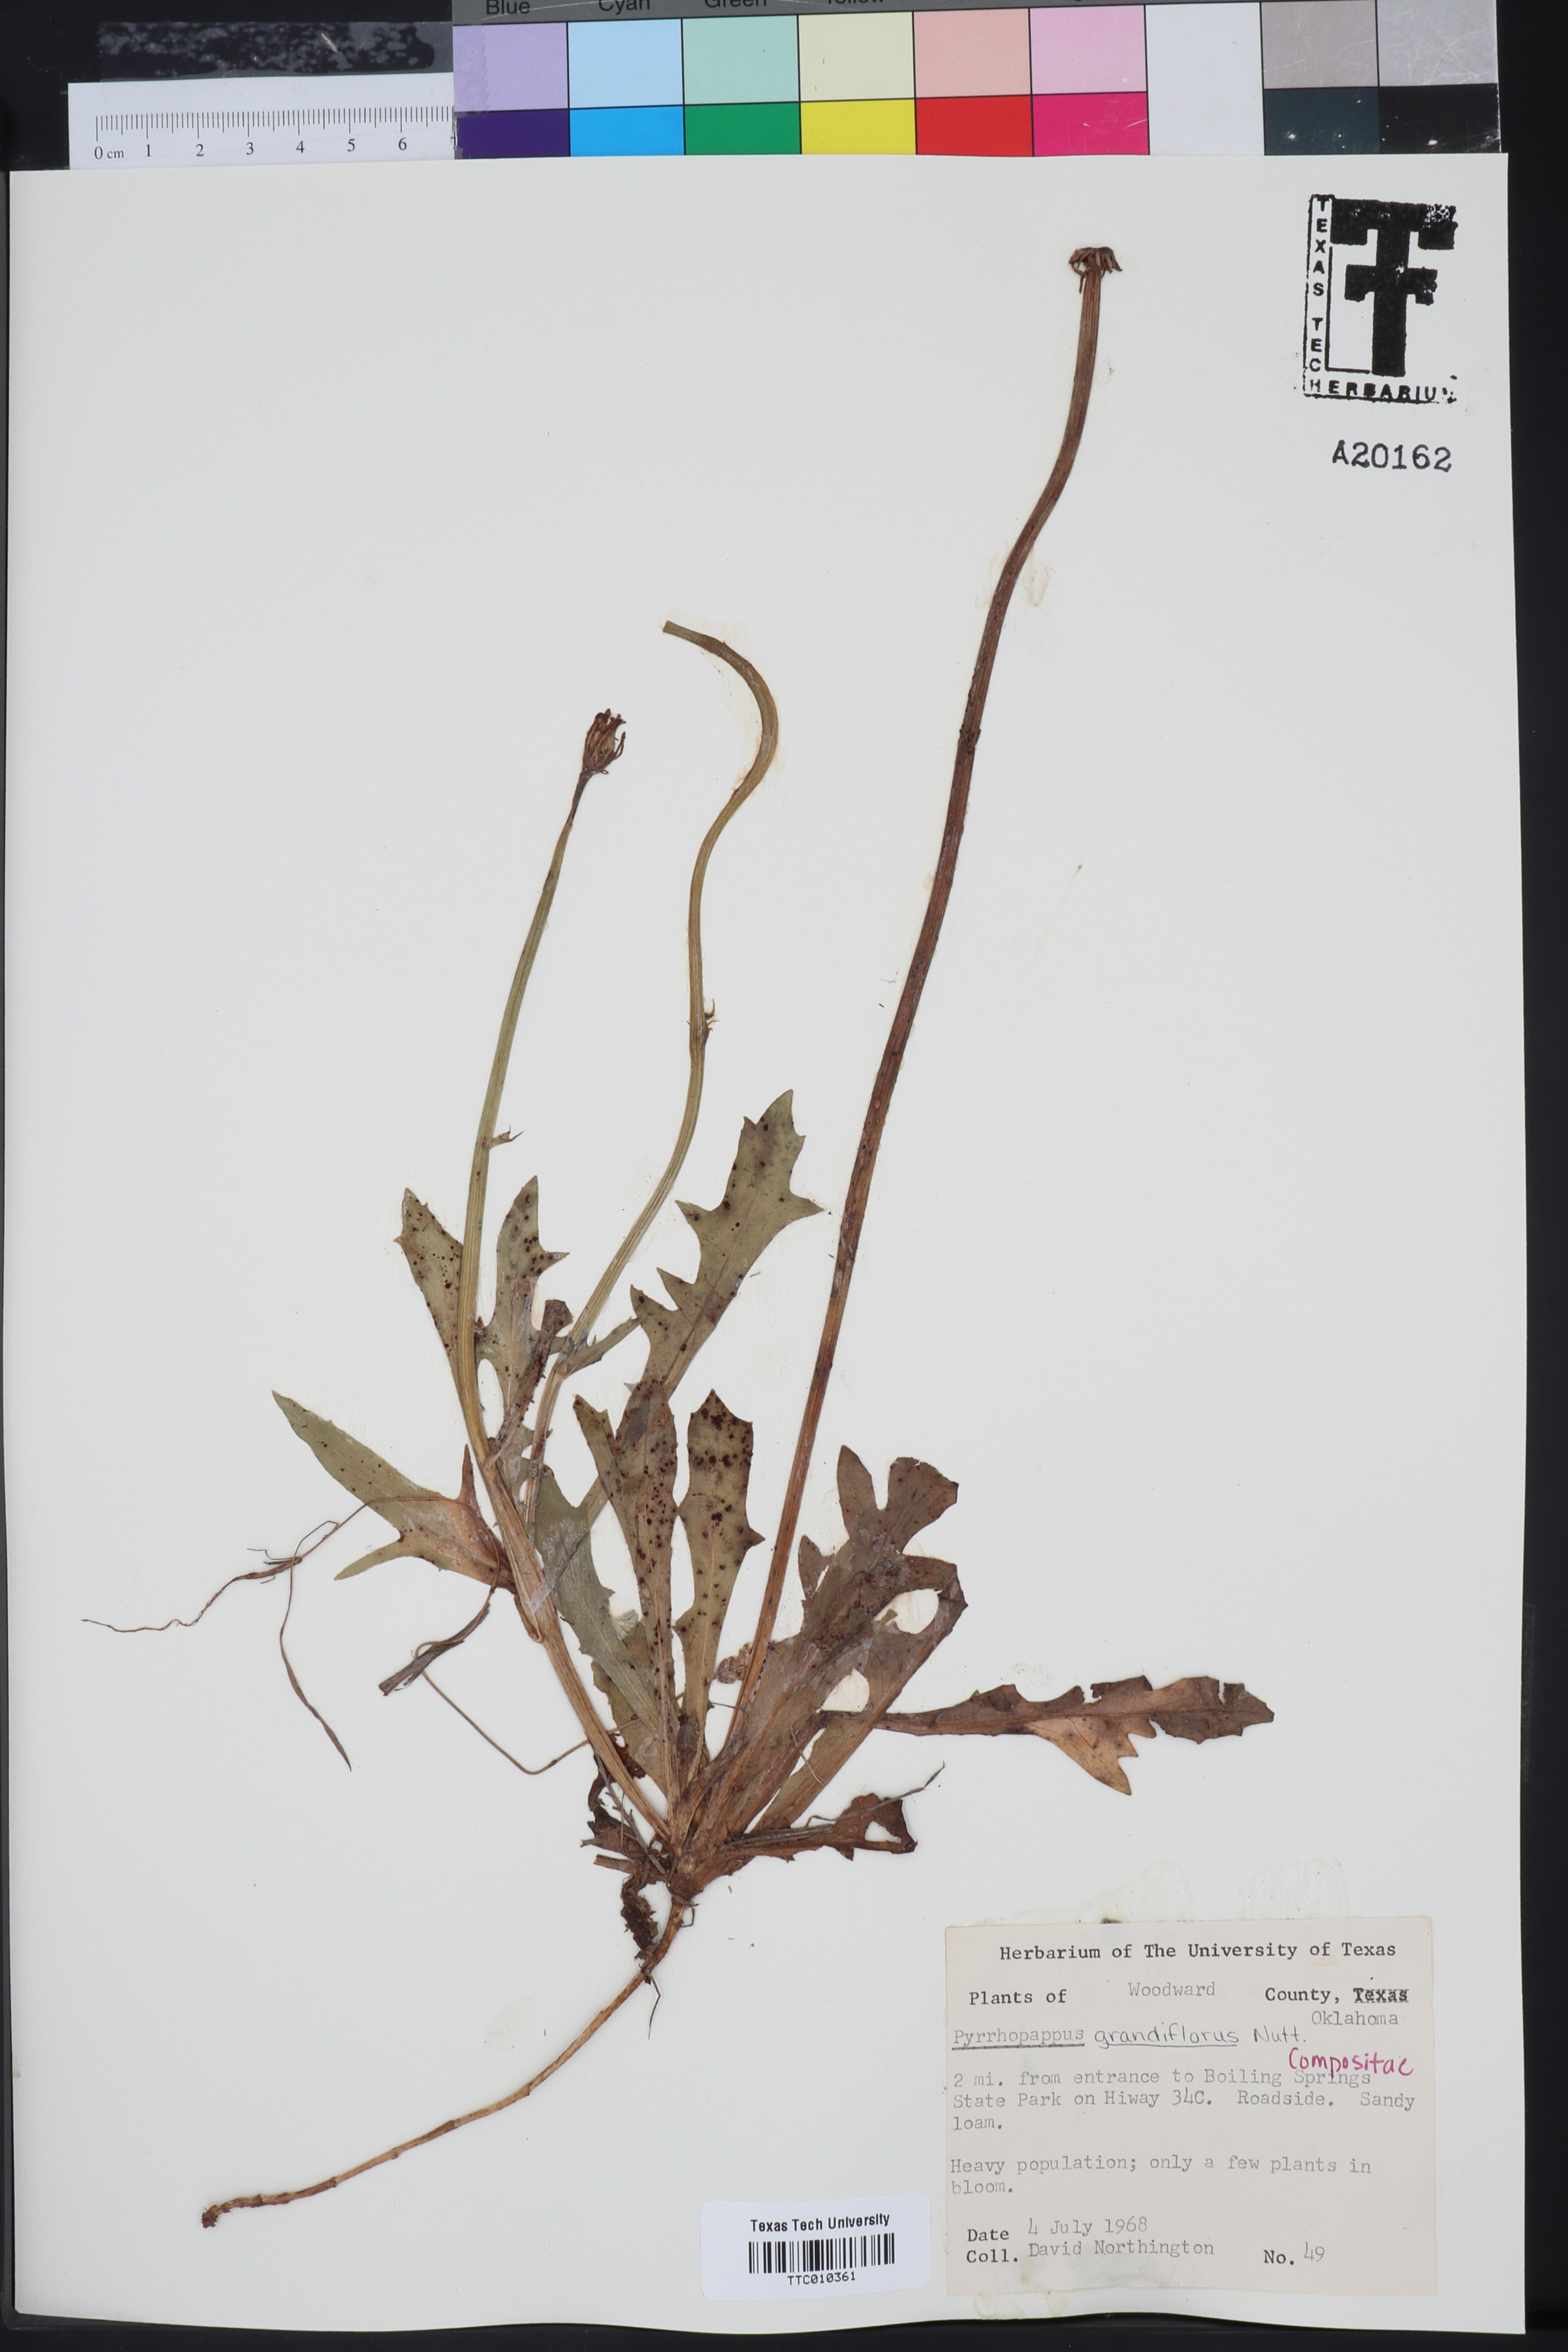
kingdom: Plantae
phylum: Tracheophyta
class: Magnoliopsida
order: Asterales
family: Asteraceae
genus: Pyrrhopappus
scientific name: Pyrrhopappus grandiflorus
